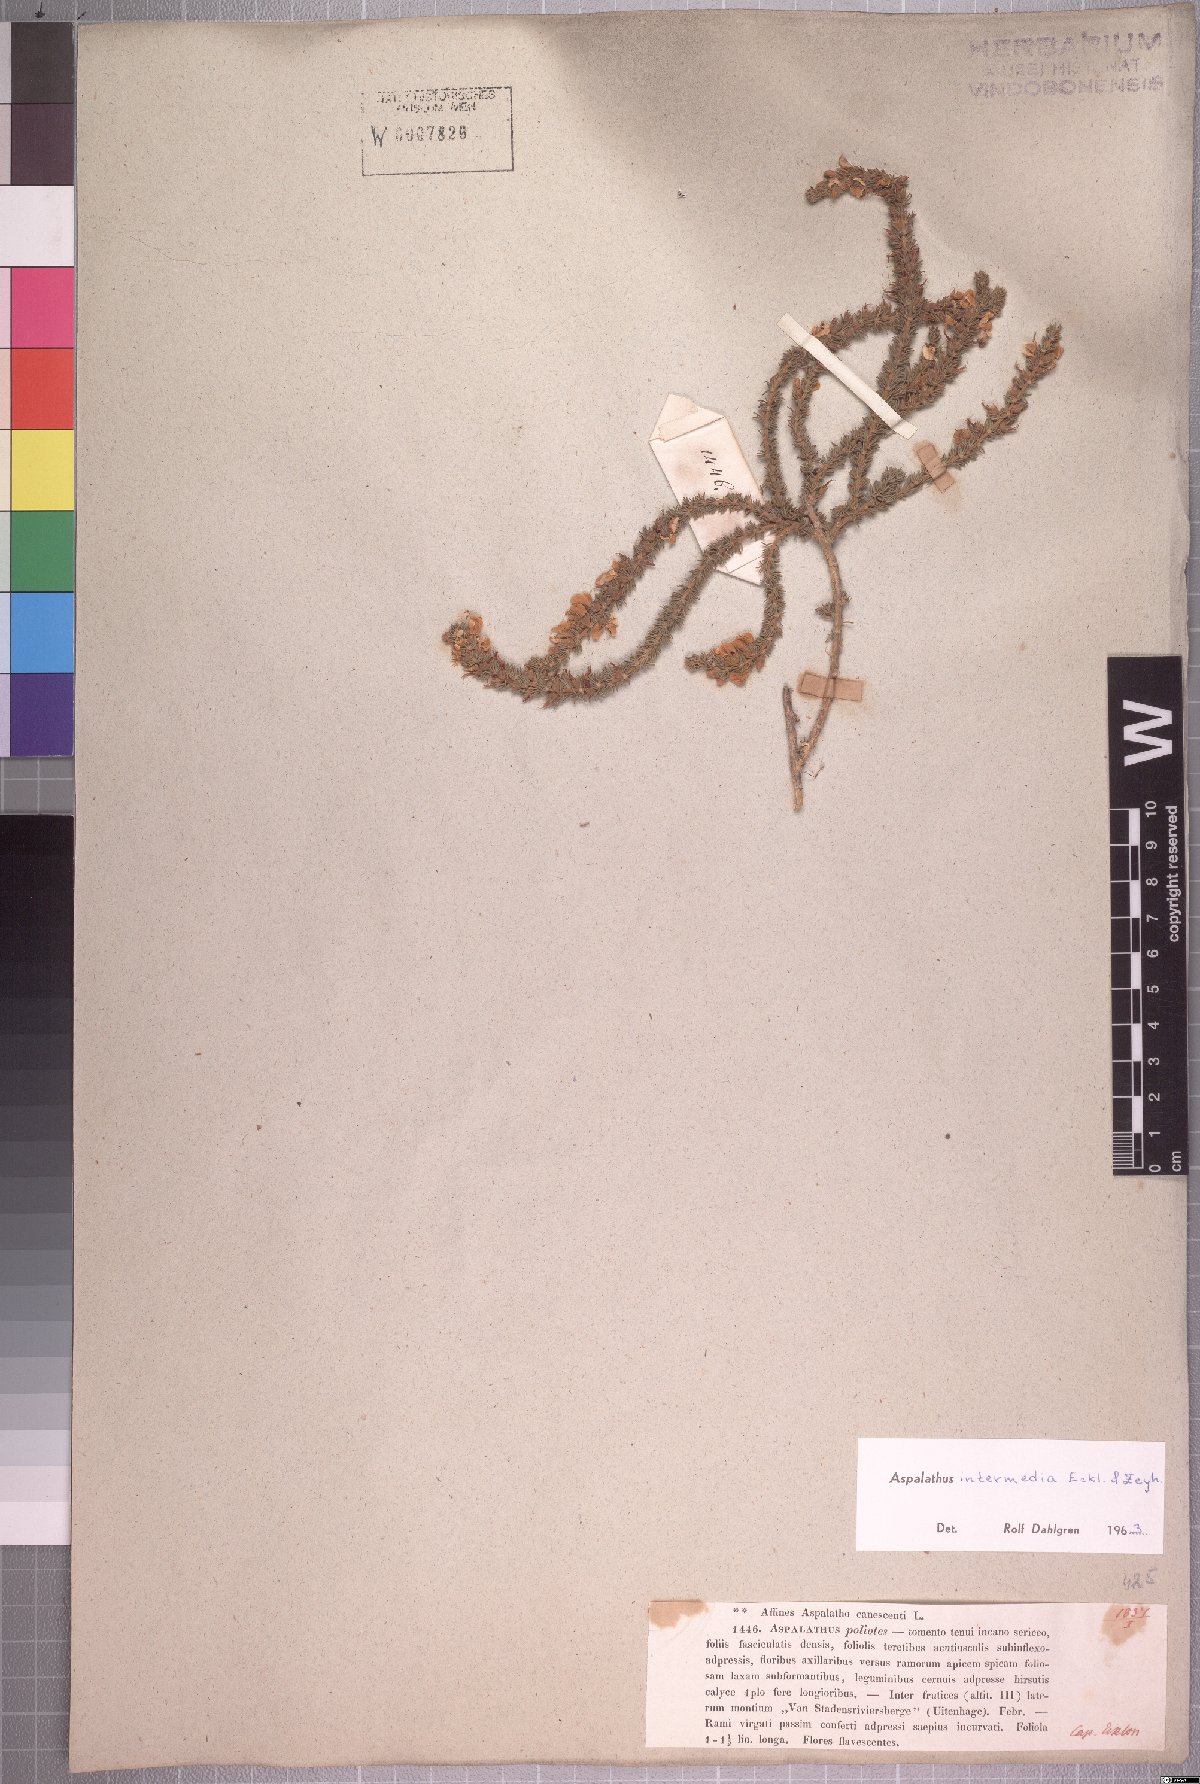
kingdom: Plantae
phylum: Tracheophyta
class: Magnoliopsida
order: Fabales
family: Fabaceae
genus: Aspalathus
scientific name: Aspalathus intermedia
